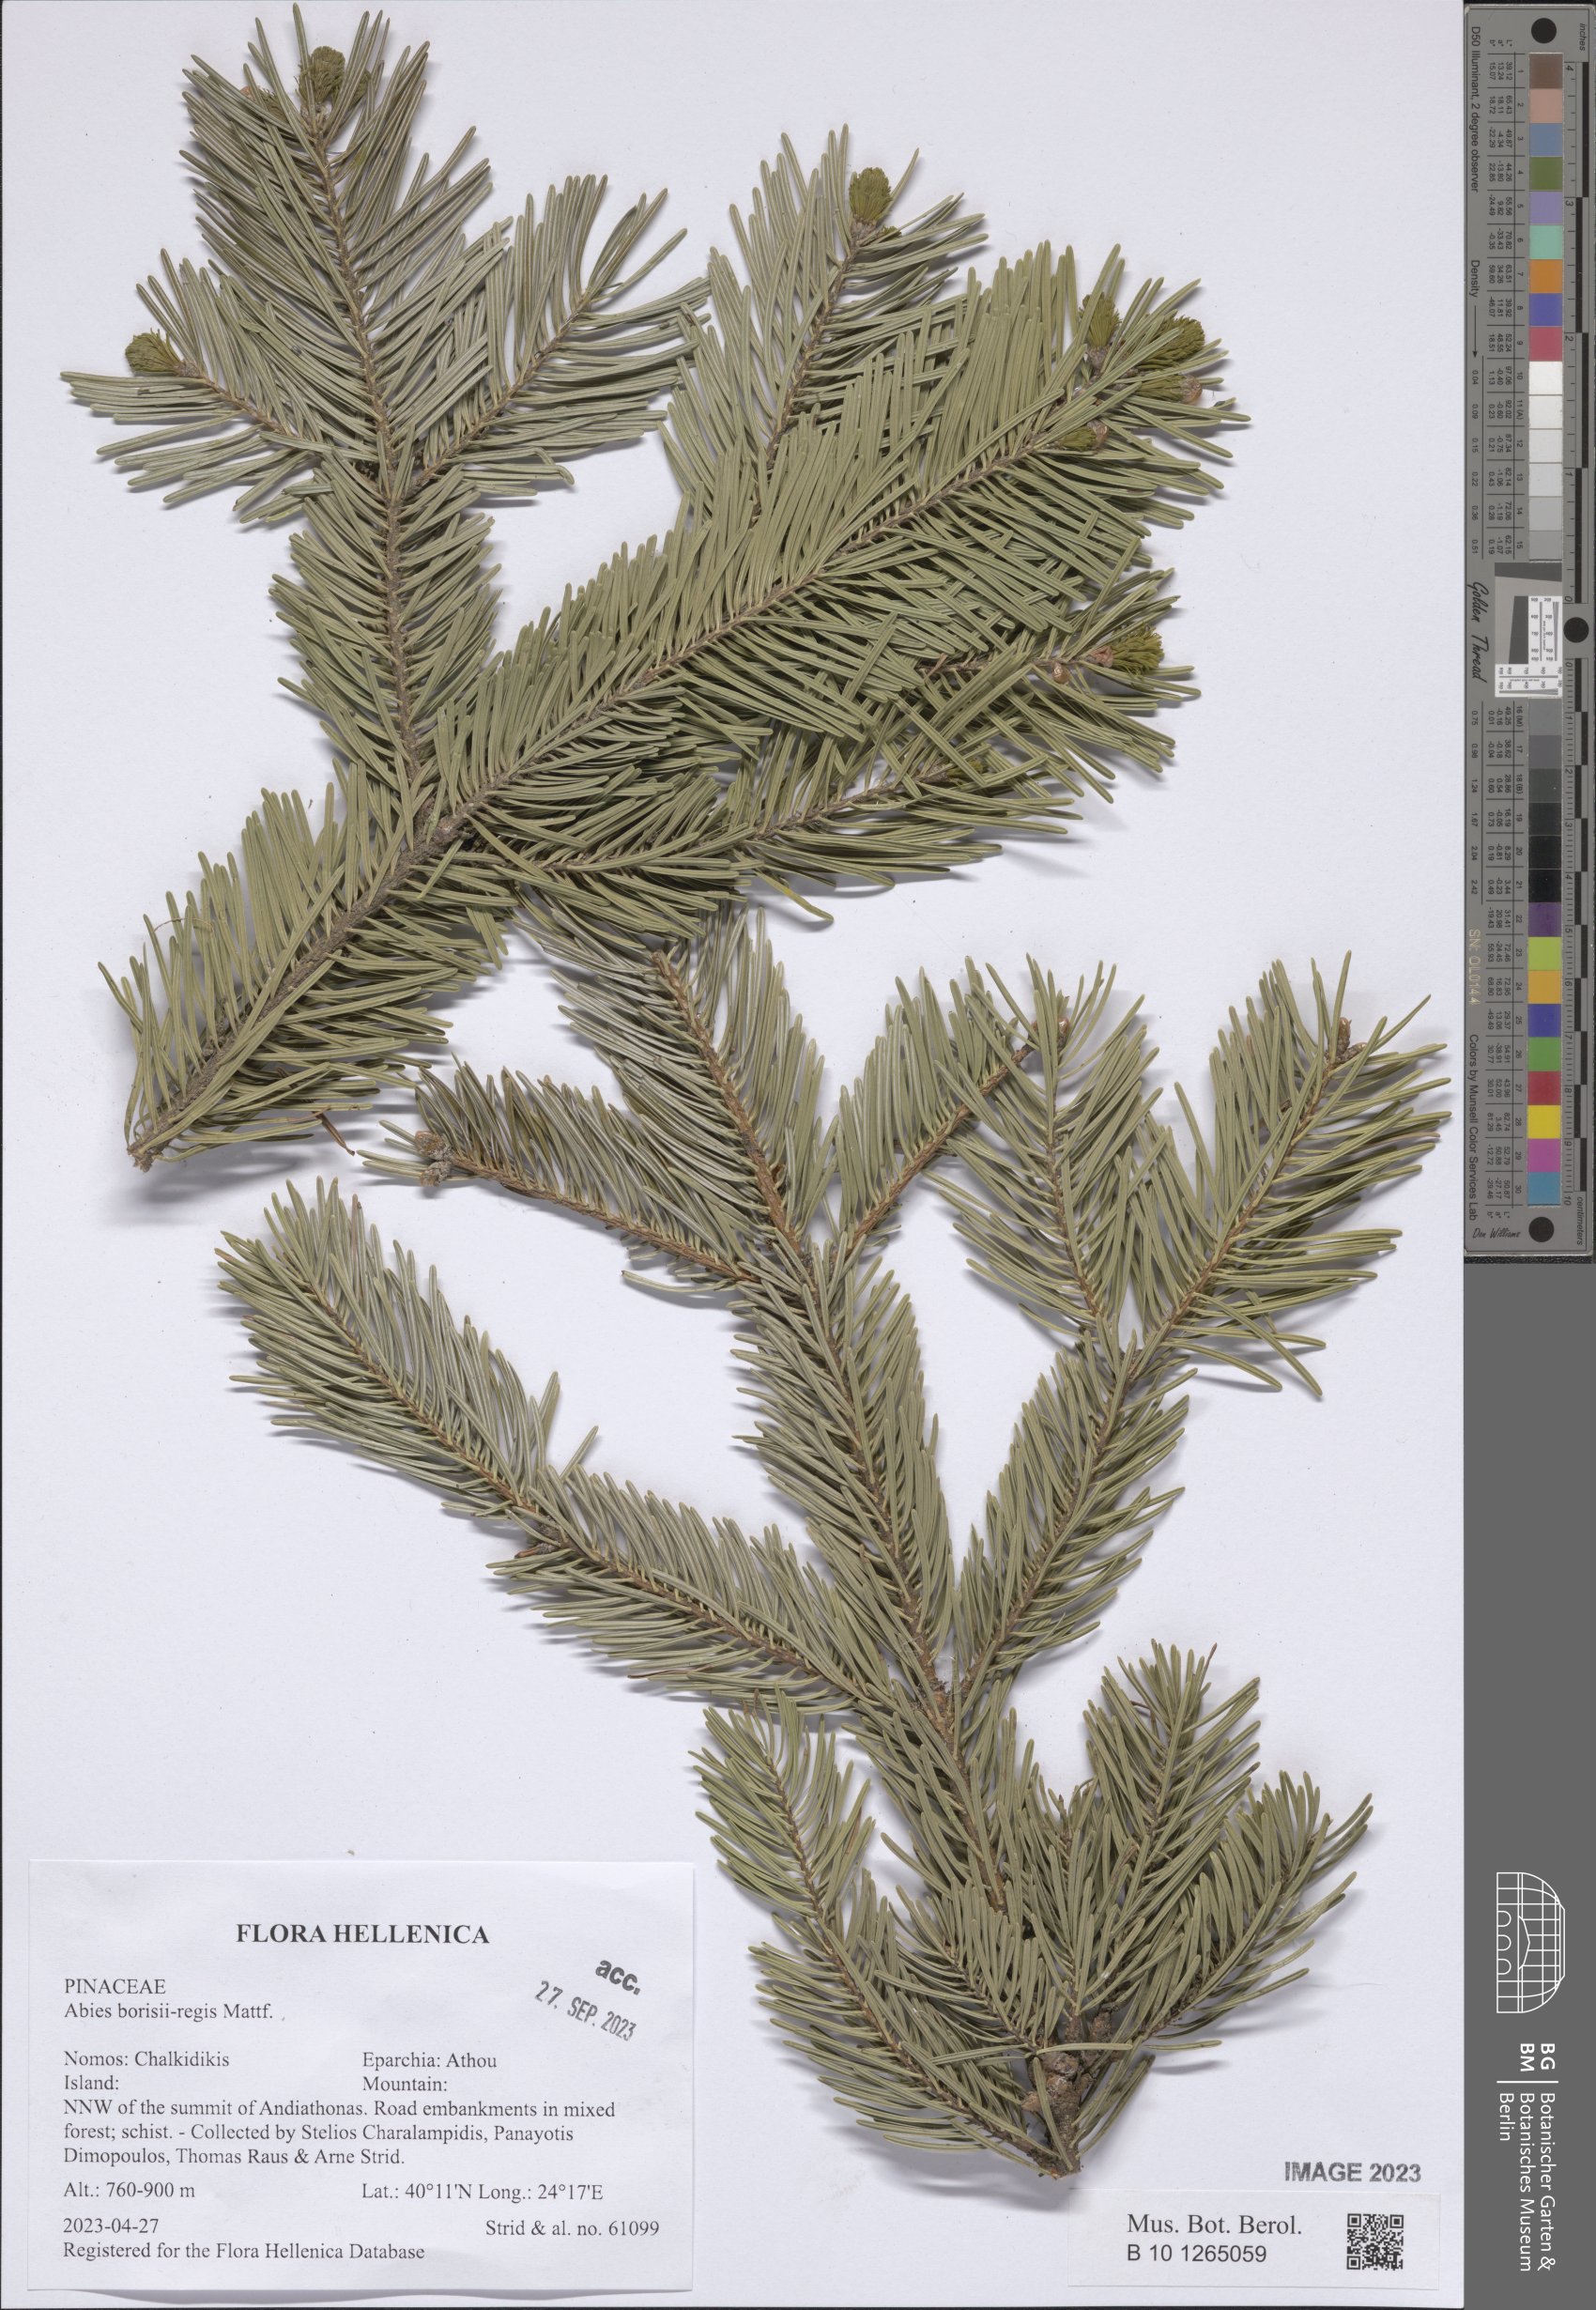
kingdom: Plantae
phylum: Tracheophyta
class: Pinopsida
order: Pinales
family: Pinaceae
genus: Abies
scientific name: Abies borisii-regis
